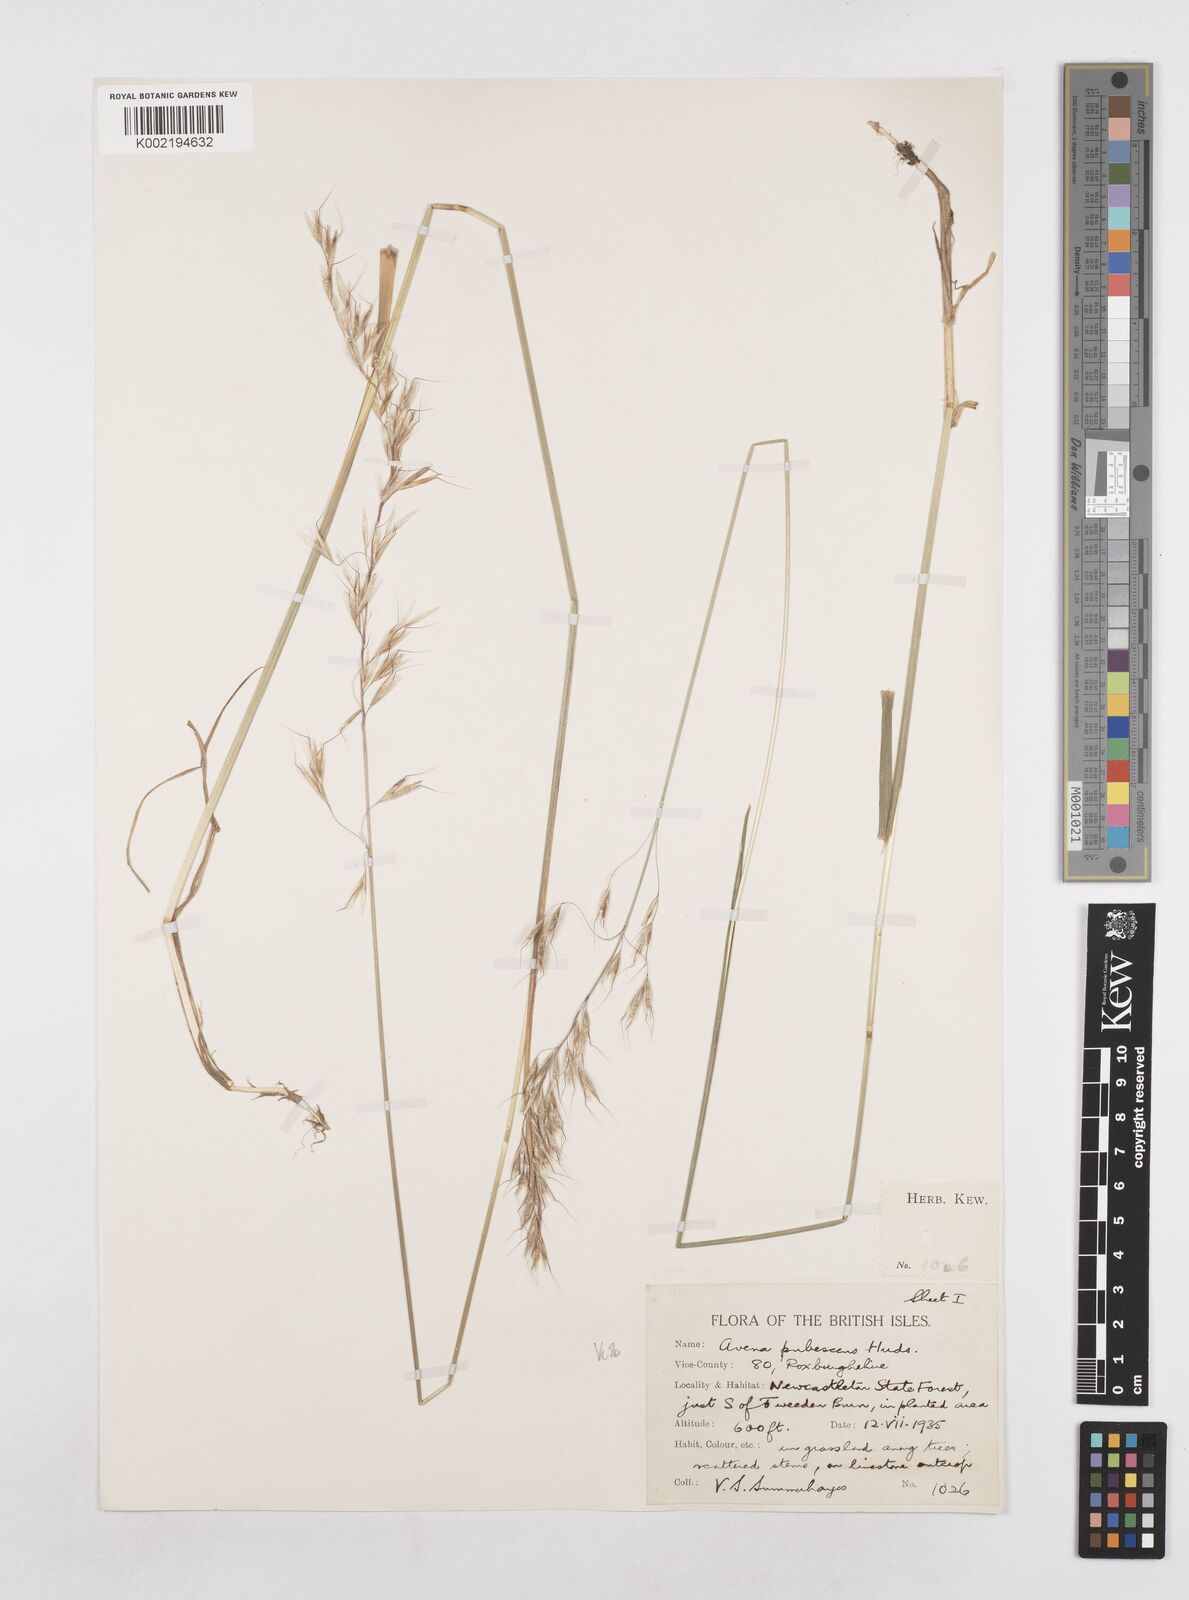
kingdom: Plantae
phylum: Tracheophyta
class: Liliopsida
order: Poales
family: Poaceae
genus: Avenula
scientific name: Avenula pubescens
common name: Downy alpine oatgrass
